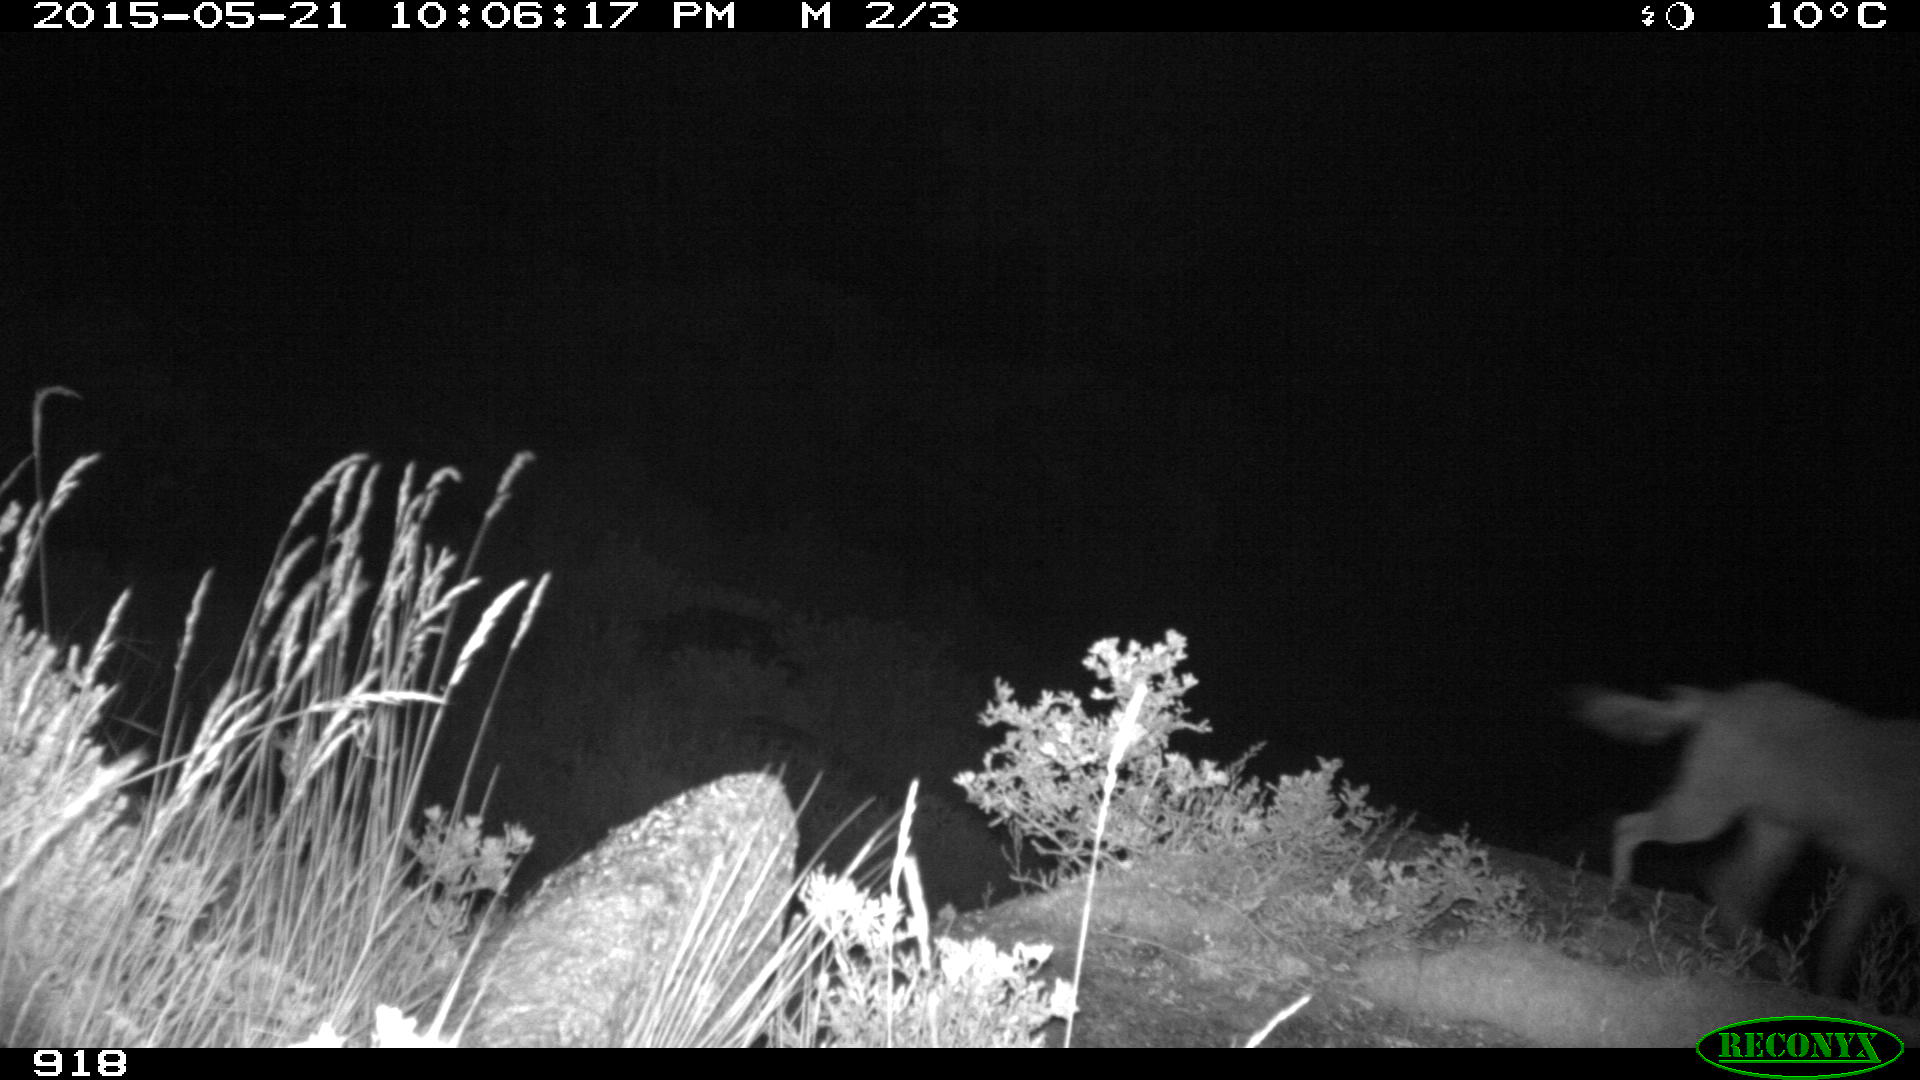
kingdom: Animalia
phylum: Chordata
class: Mammalia
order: Carnivora
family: Canidae
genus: Canis
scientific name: Canis lupus
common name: Gray wolf
